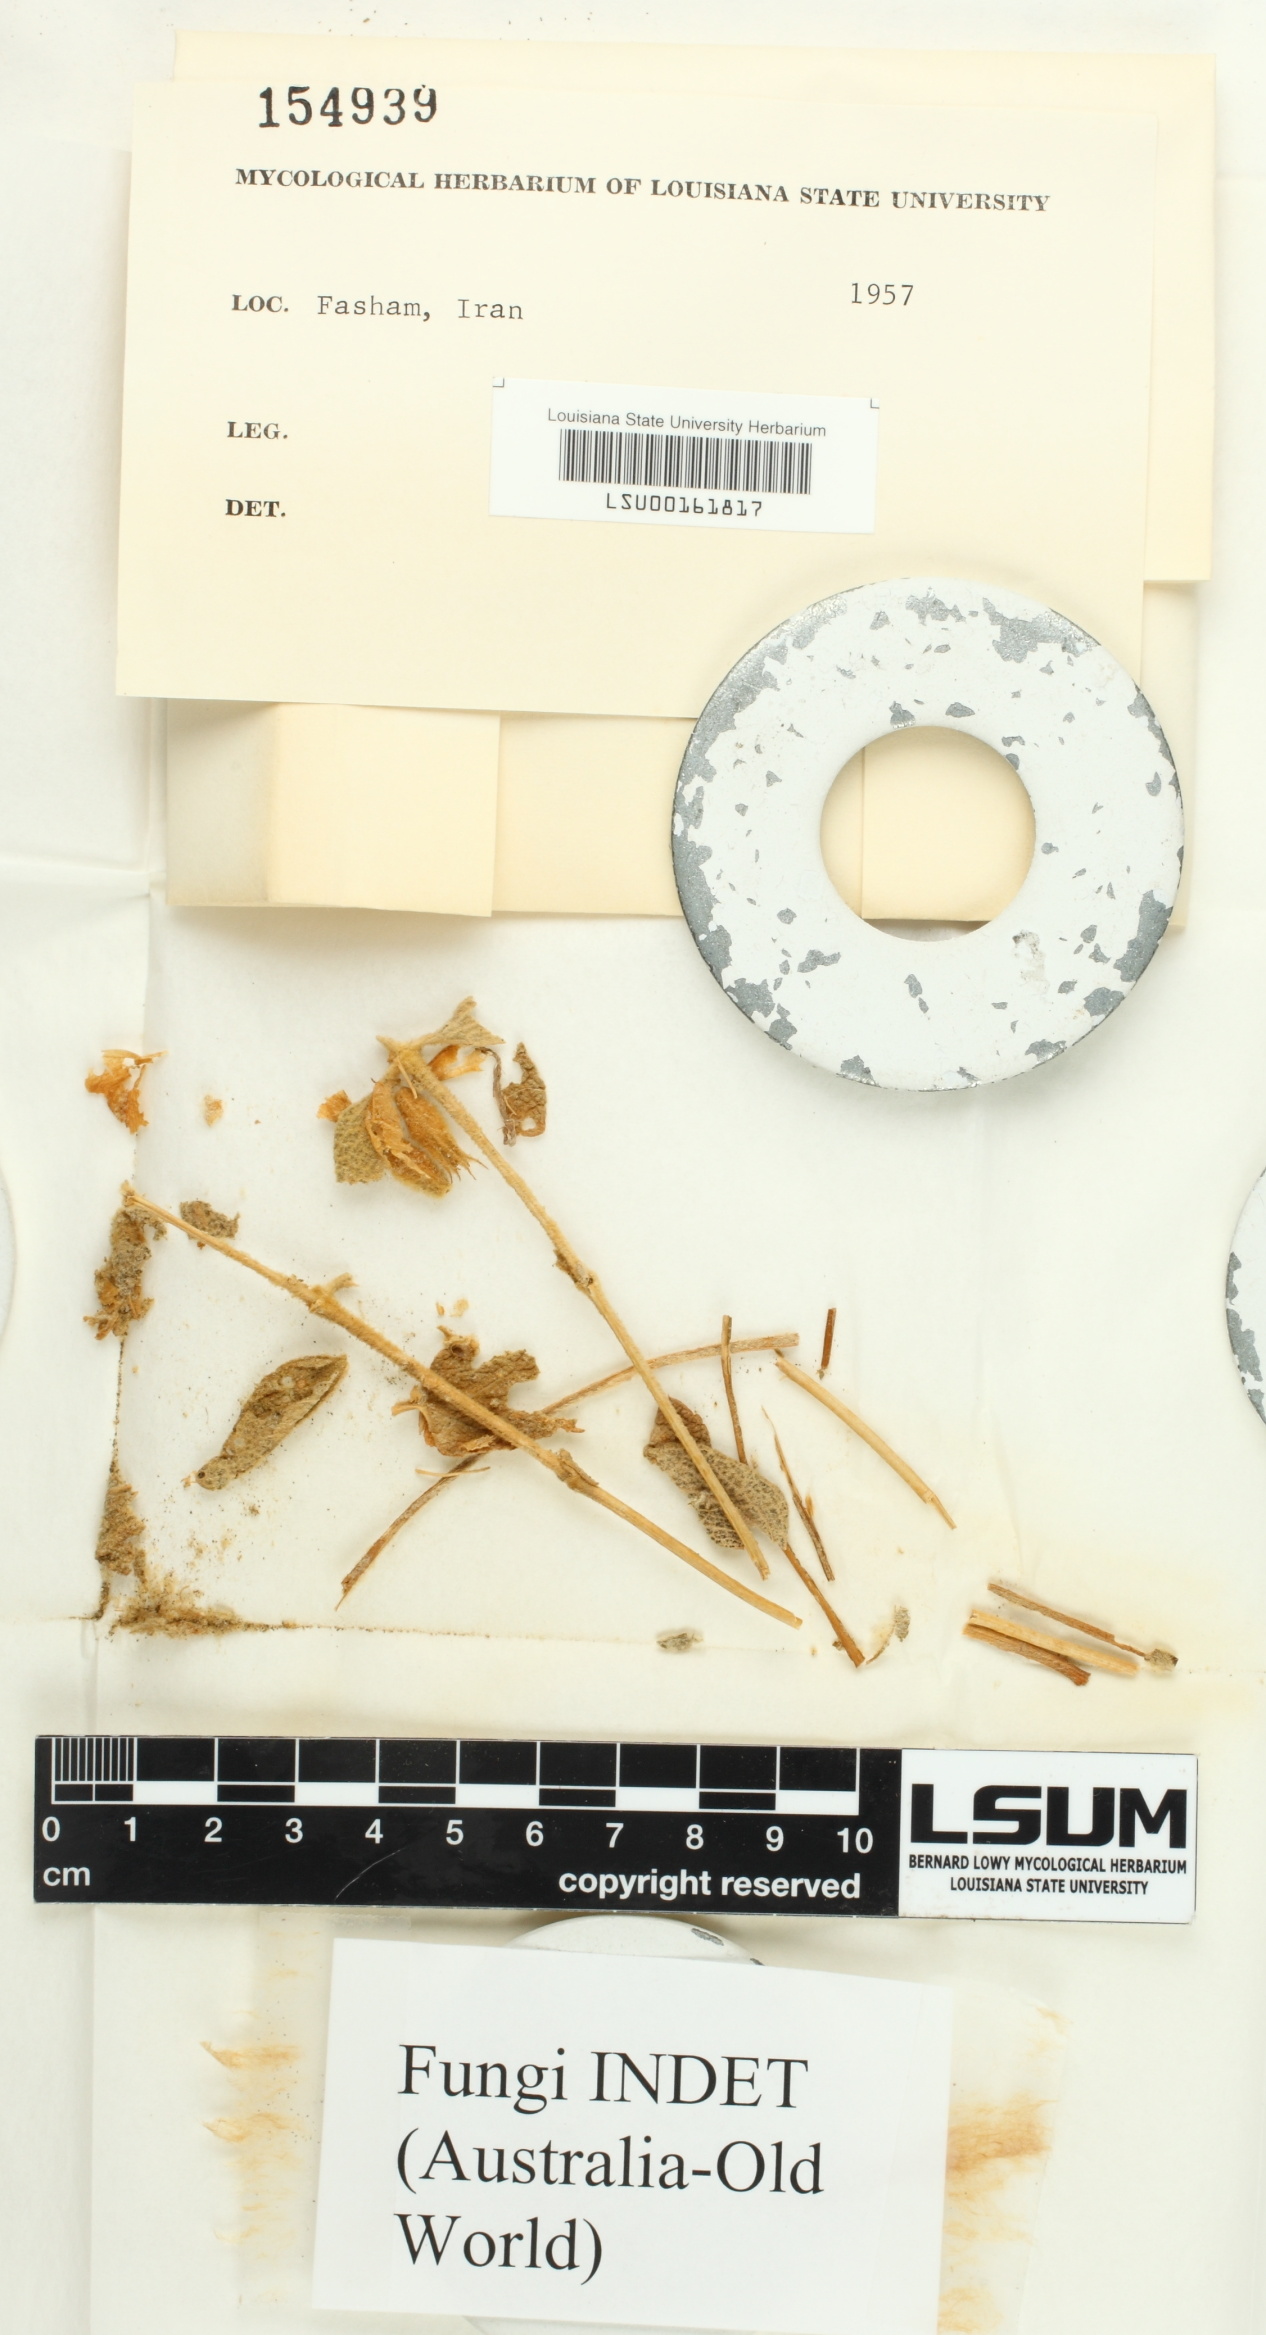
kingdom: Fungi
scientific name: Fungi
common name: Fungi
